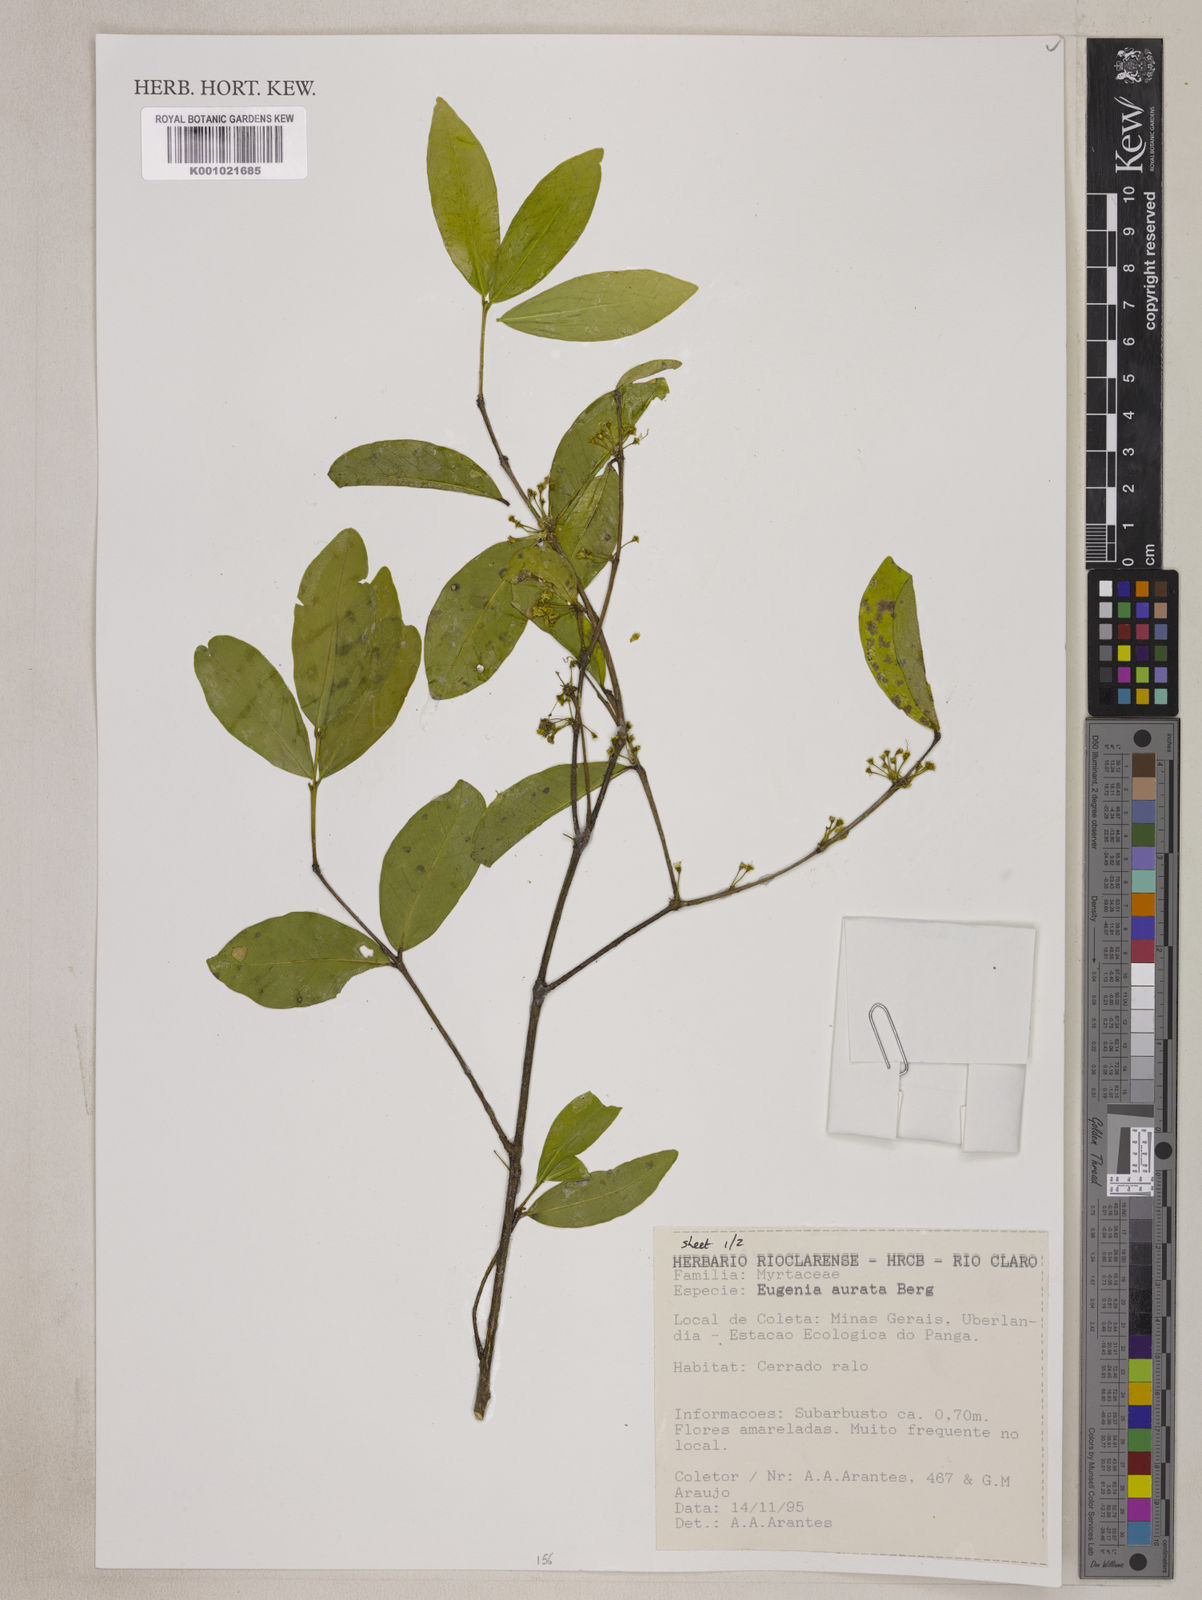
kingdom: Plantae
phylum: Tracheophyta
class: Magnoliopsida
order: Myrtales
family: Myrtaceae
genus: Eugenia
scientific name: Eugenia aurata
